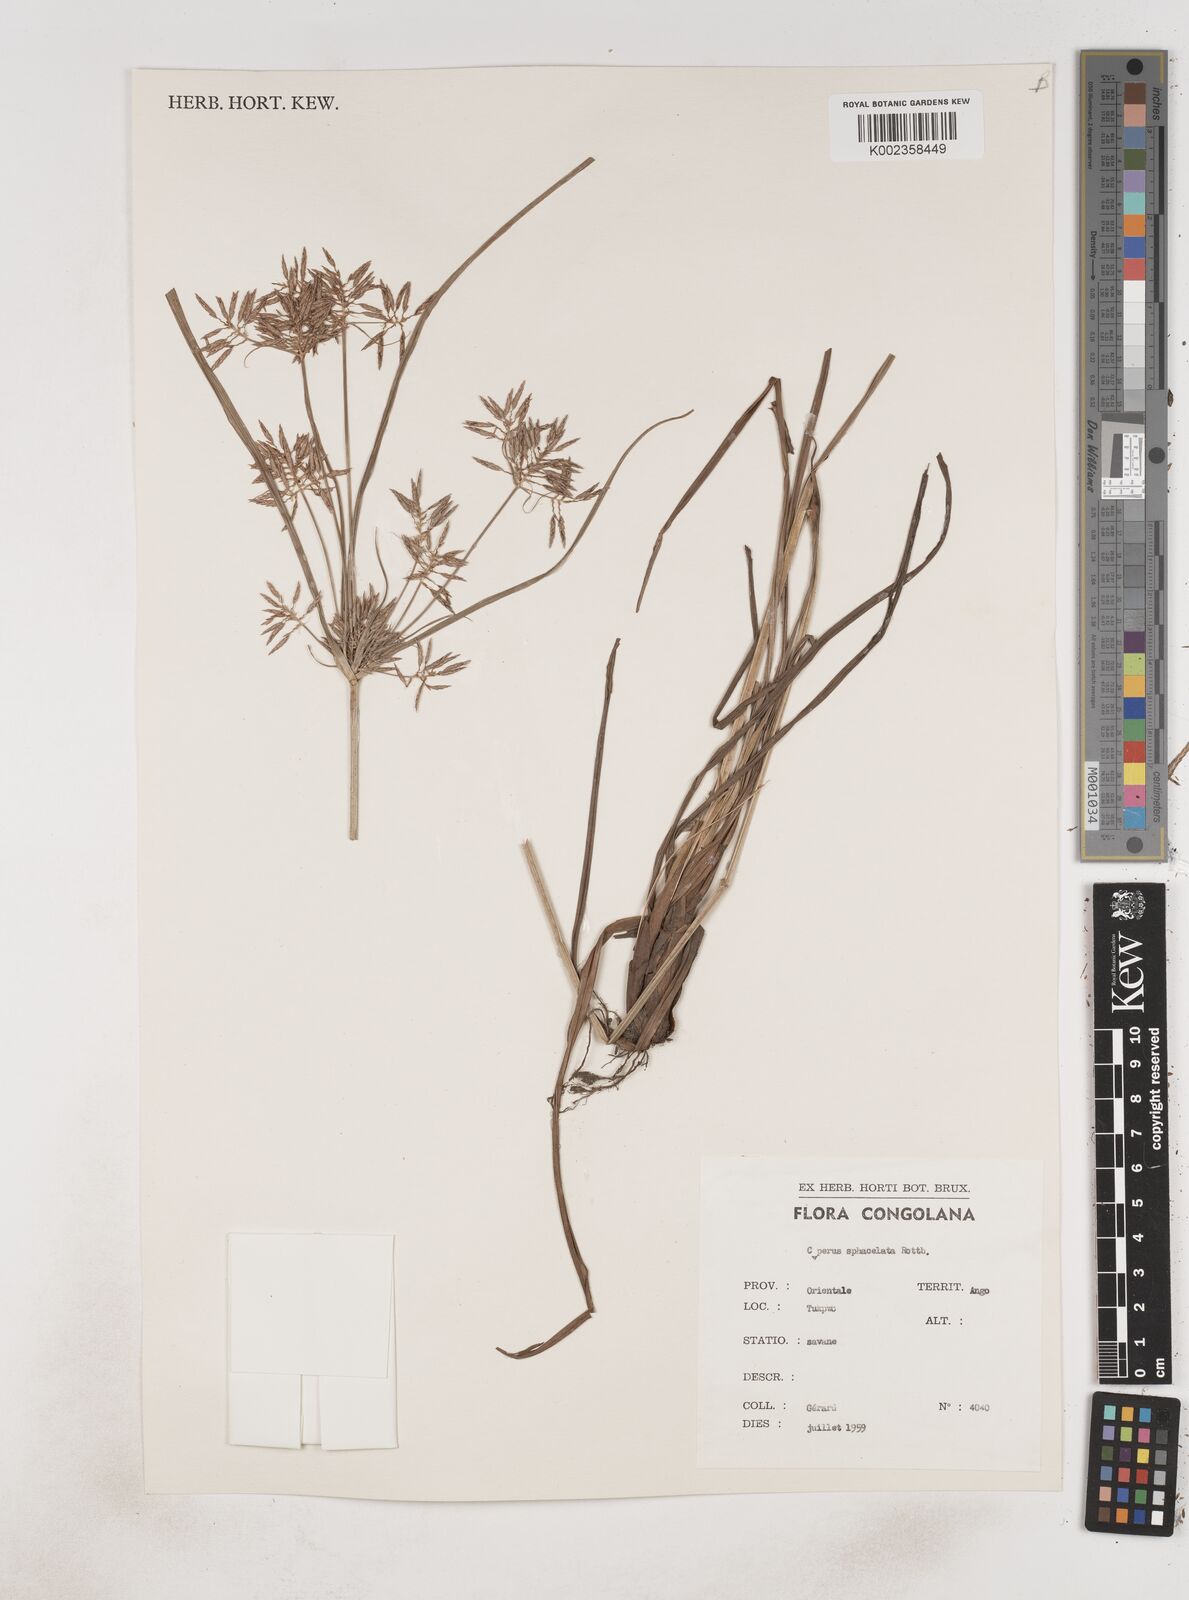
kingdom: Plantae
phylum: Tracheophyta
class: Liliopsida
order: Poales
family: Cyperaceae
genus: Cyperus
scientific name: Cyperus sphacelatus
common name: Roadside flatsedge
